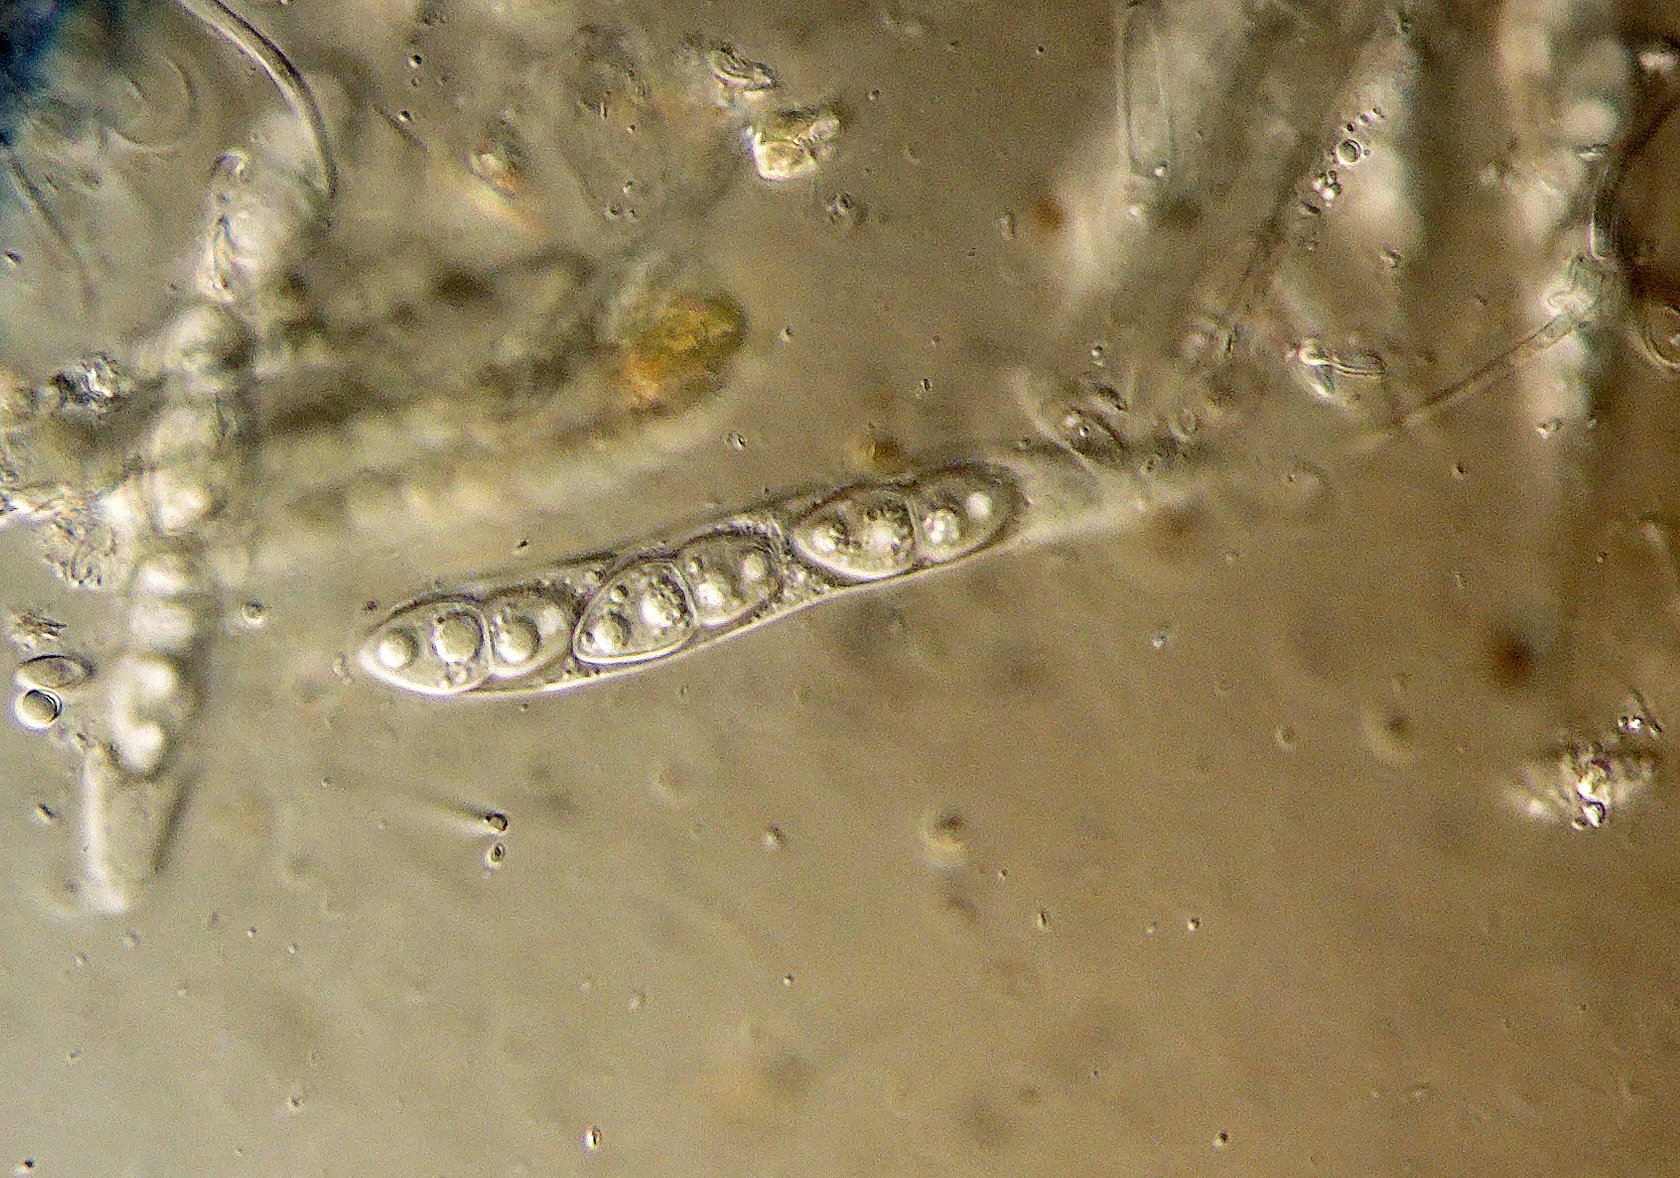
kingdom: Fungi
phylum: Ascomycota
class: Dothideomycetes
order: Pleosporales
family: Didymellaceae
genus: Didymella
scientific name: Didymella proximella
